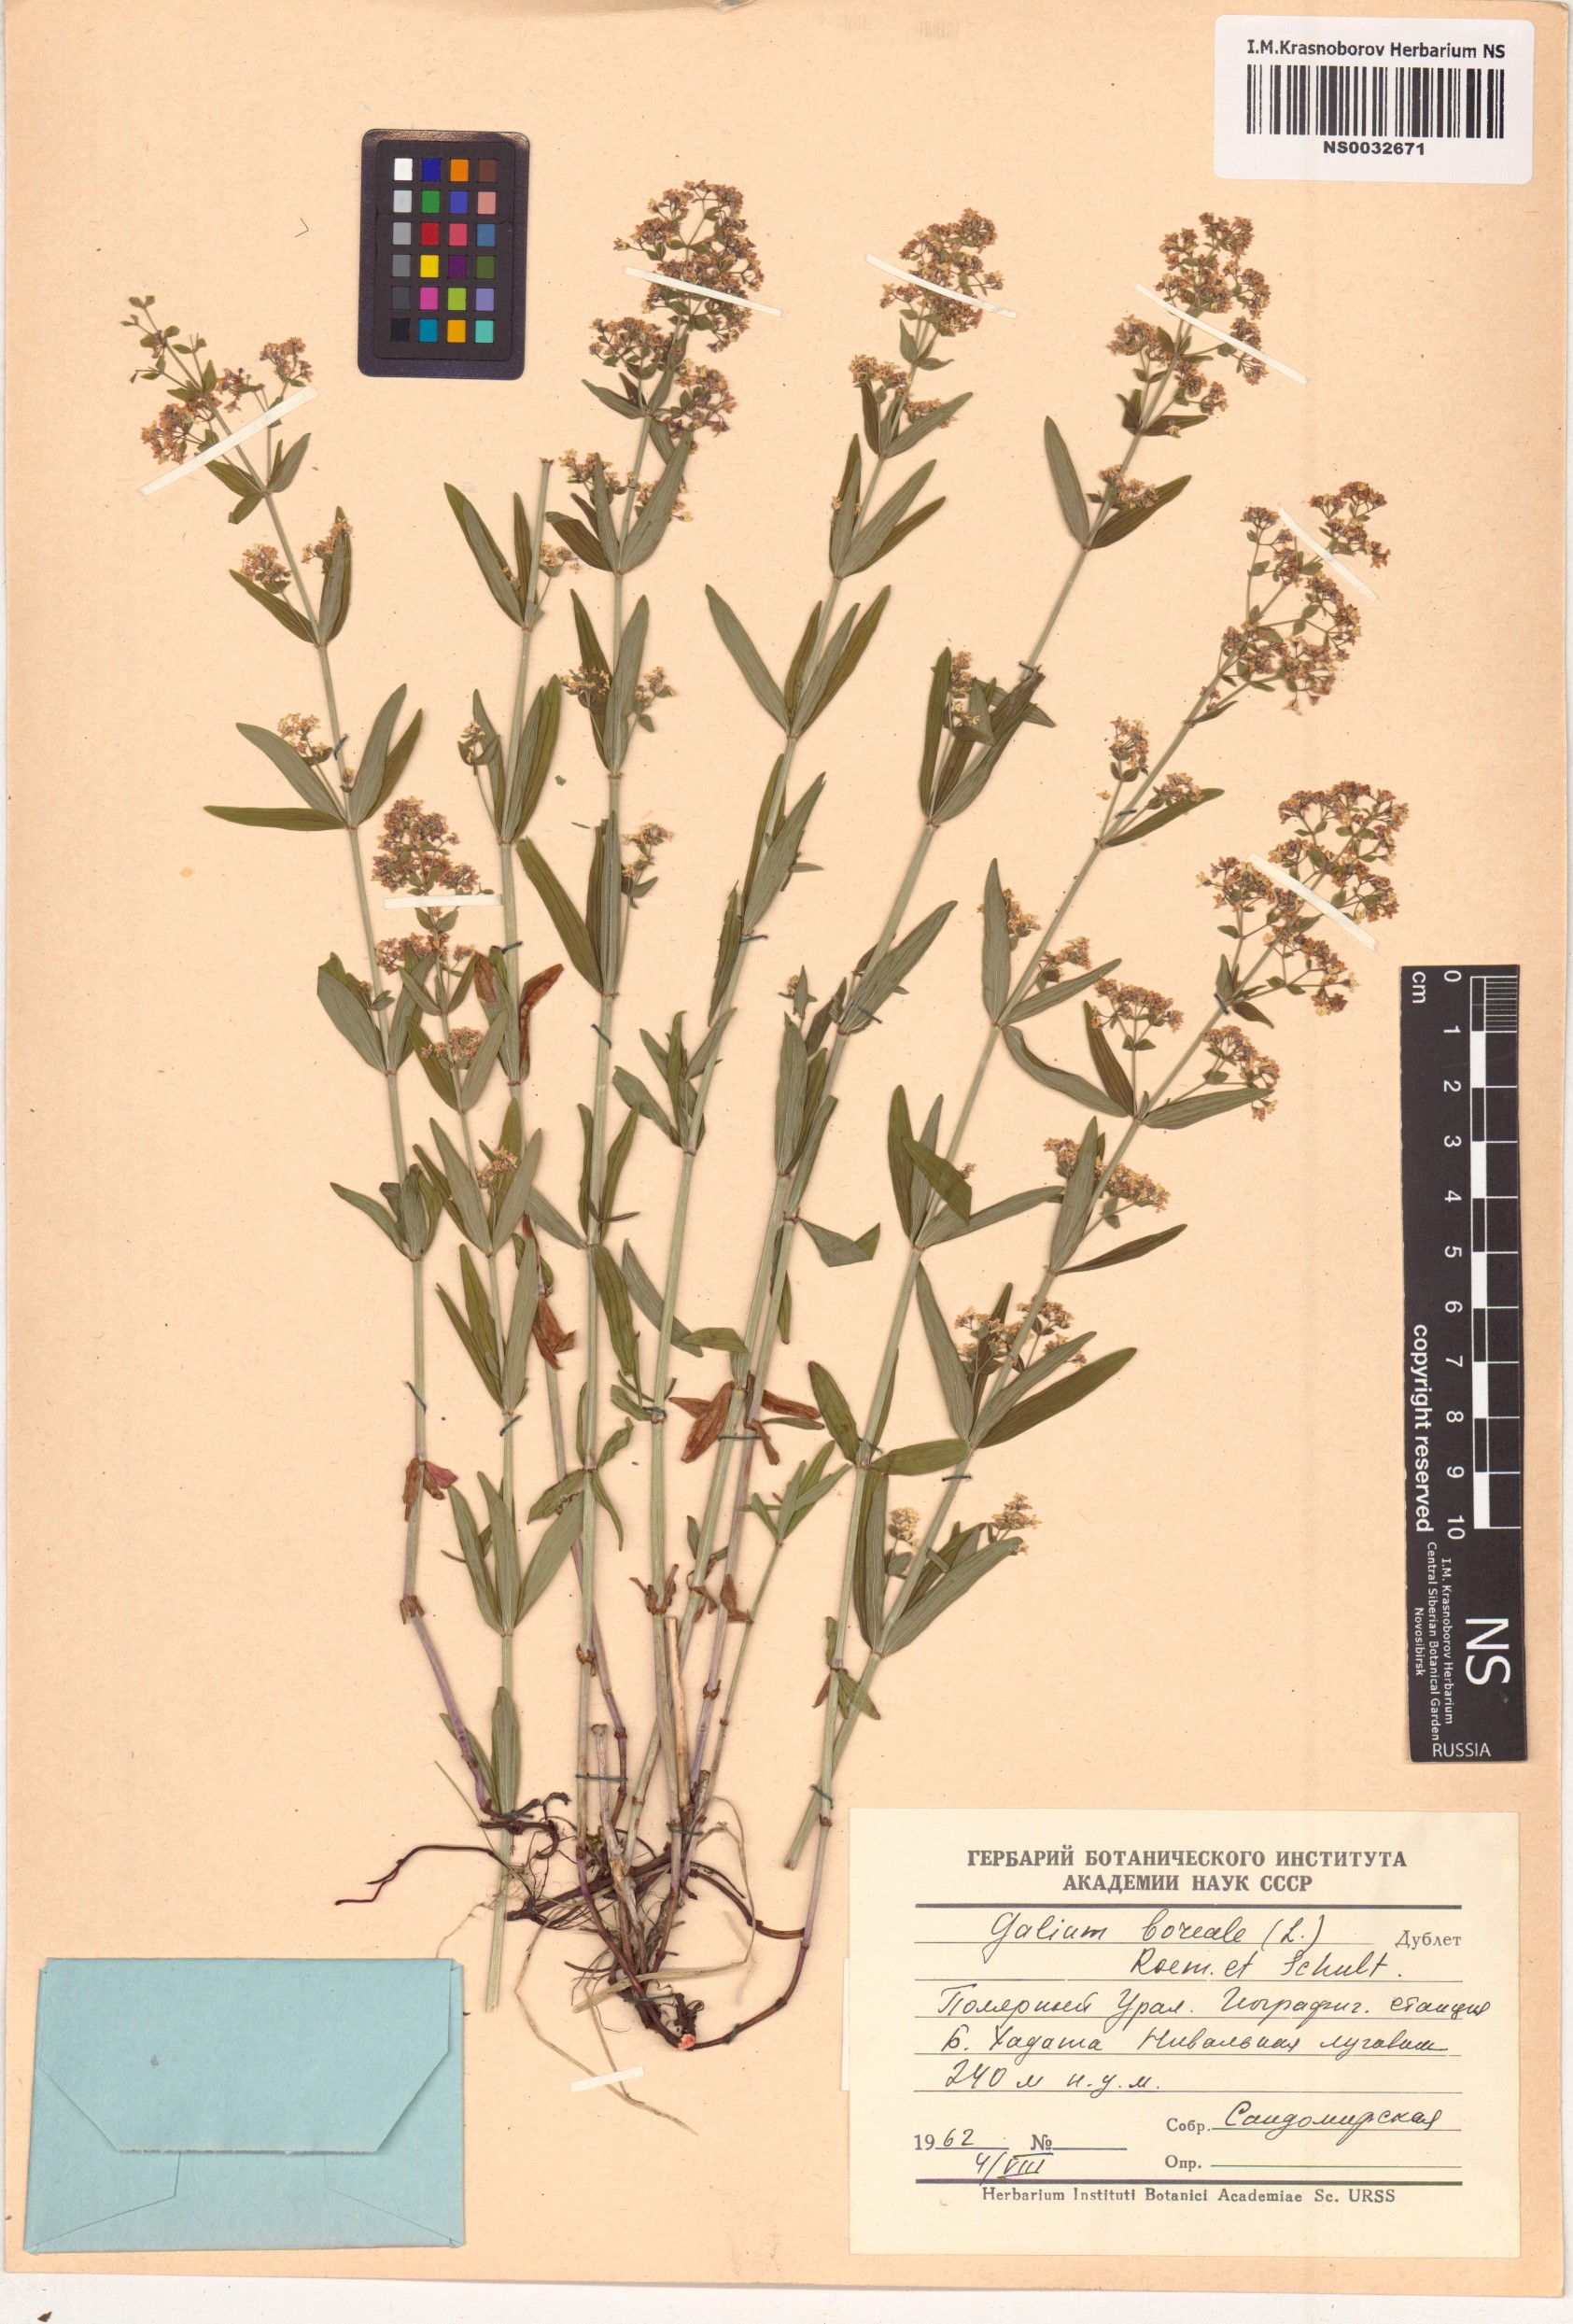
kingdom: Plantae
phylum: Tracheophyta
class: Magnoliopsida
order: Gentianales
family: Rubiaceae
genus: Galium
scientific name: Galium boreale
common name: Northern bedstraw
